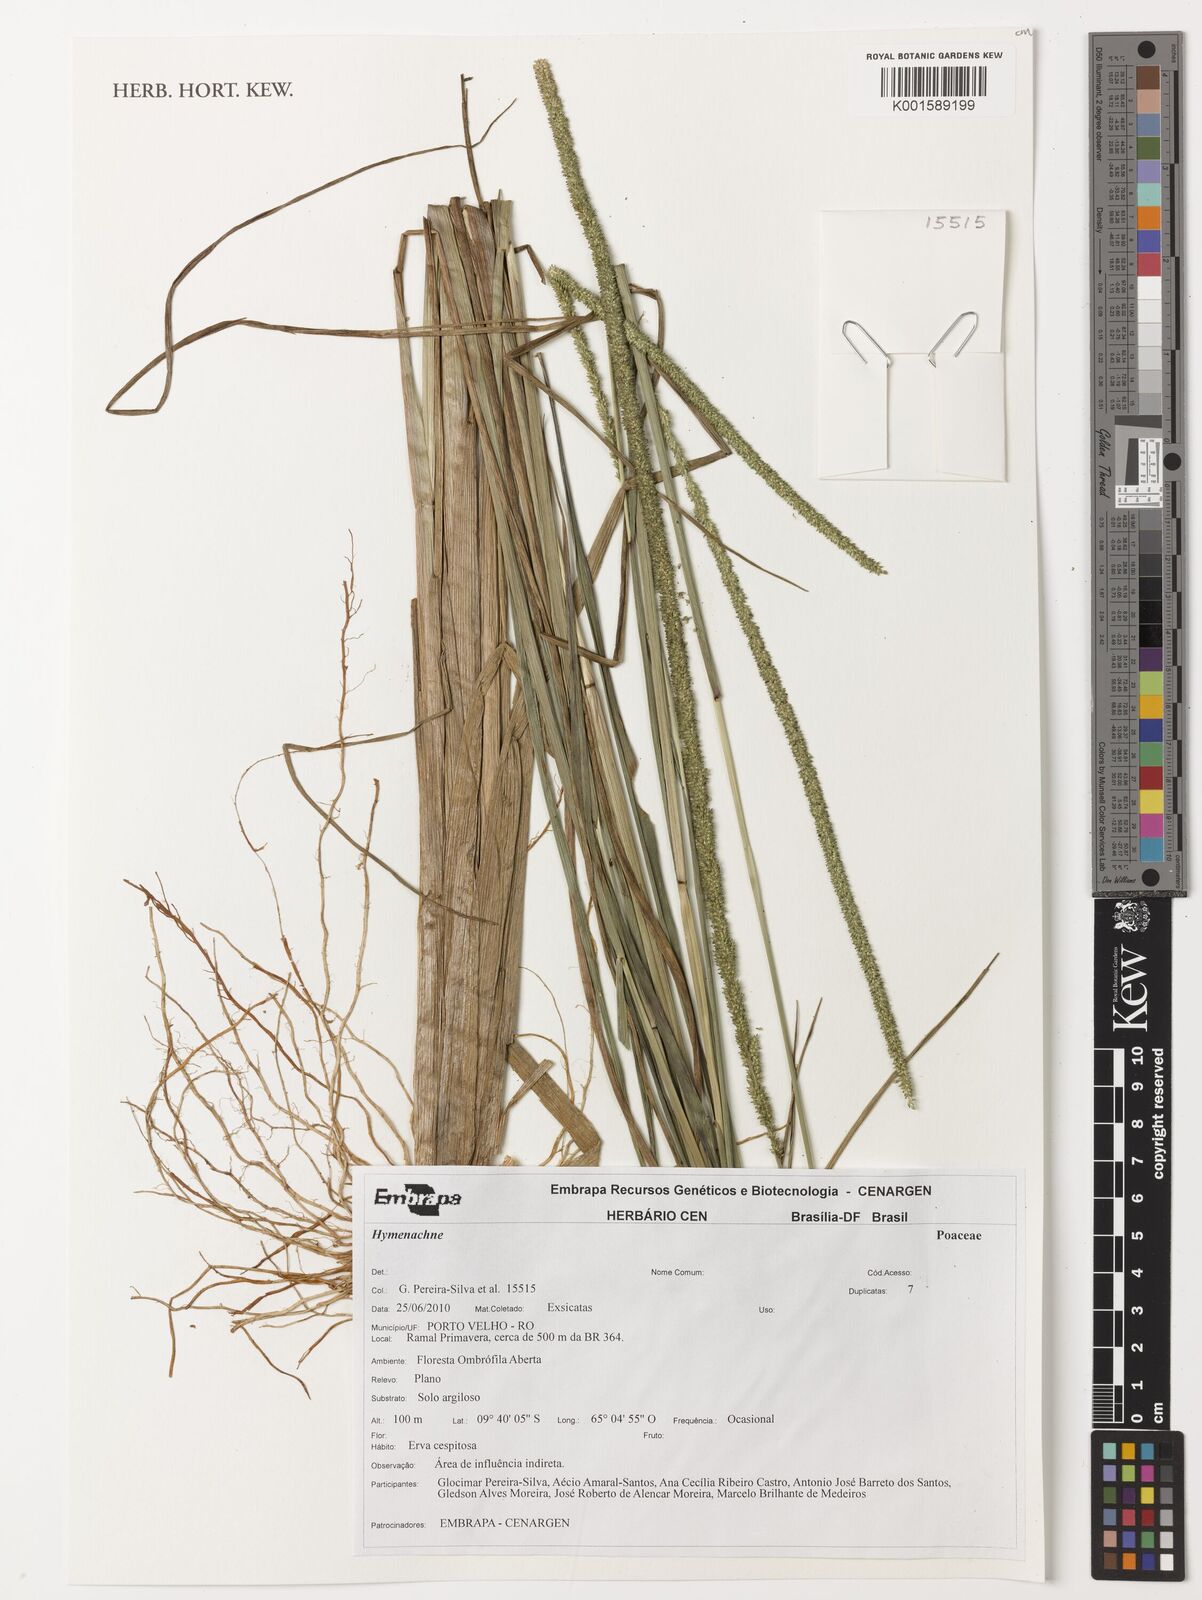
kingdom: Plantae
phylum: Tracheophyta
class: Liliopsida
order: Poales
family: Poaceae
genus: Hymenachne
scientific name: Hymenachne
